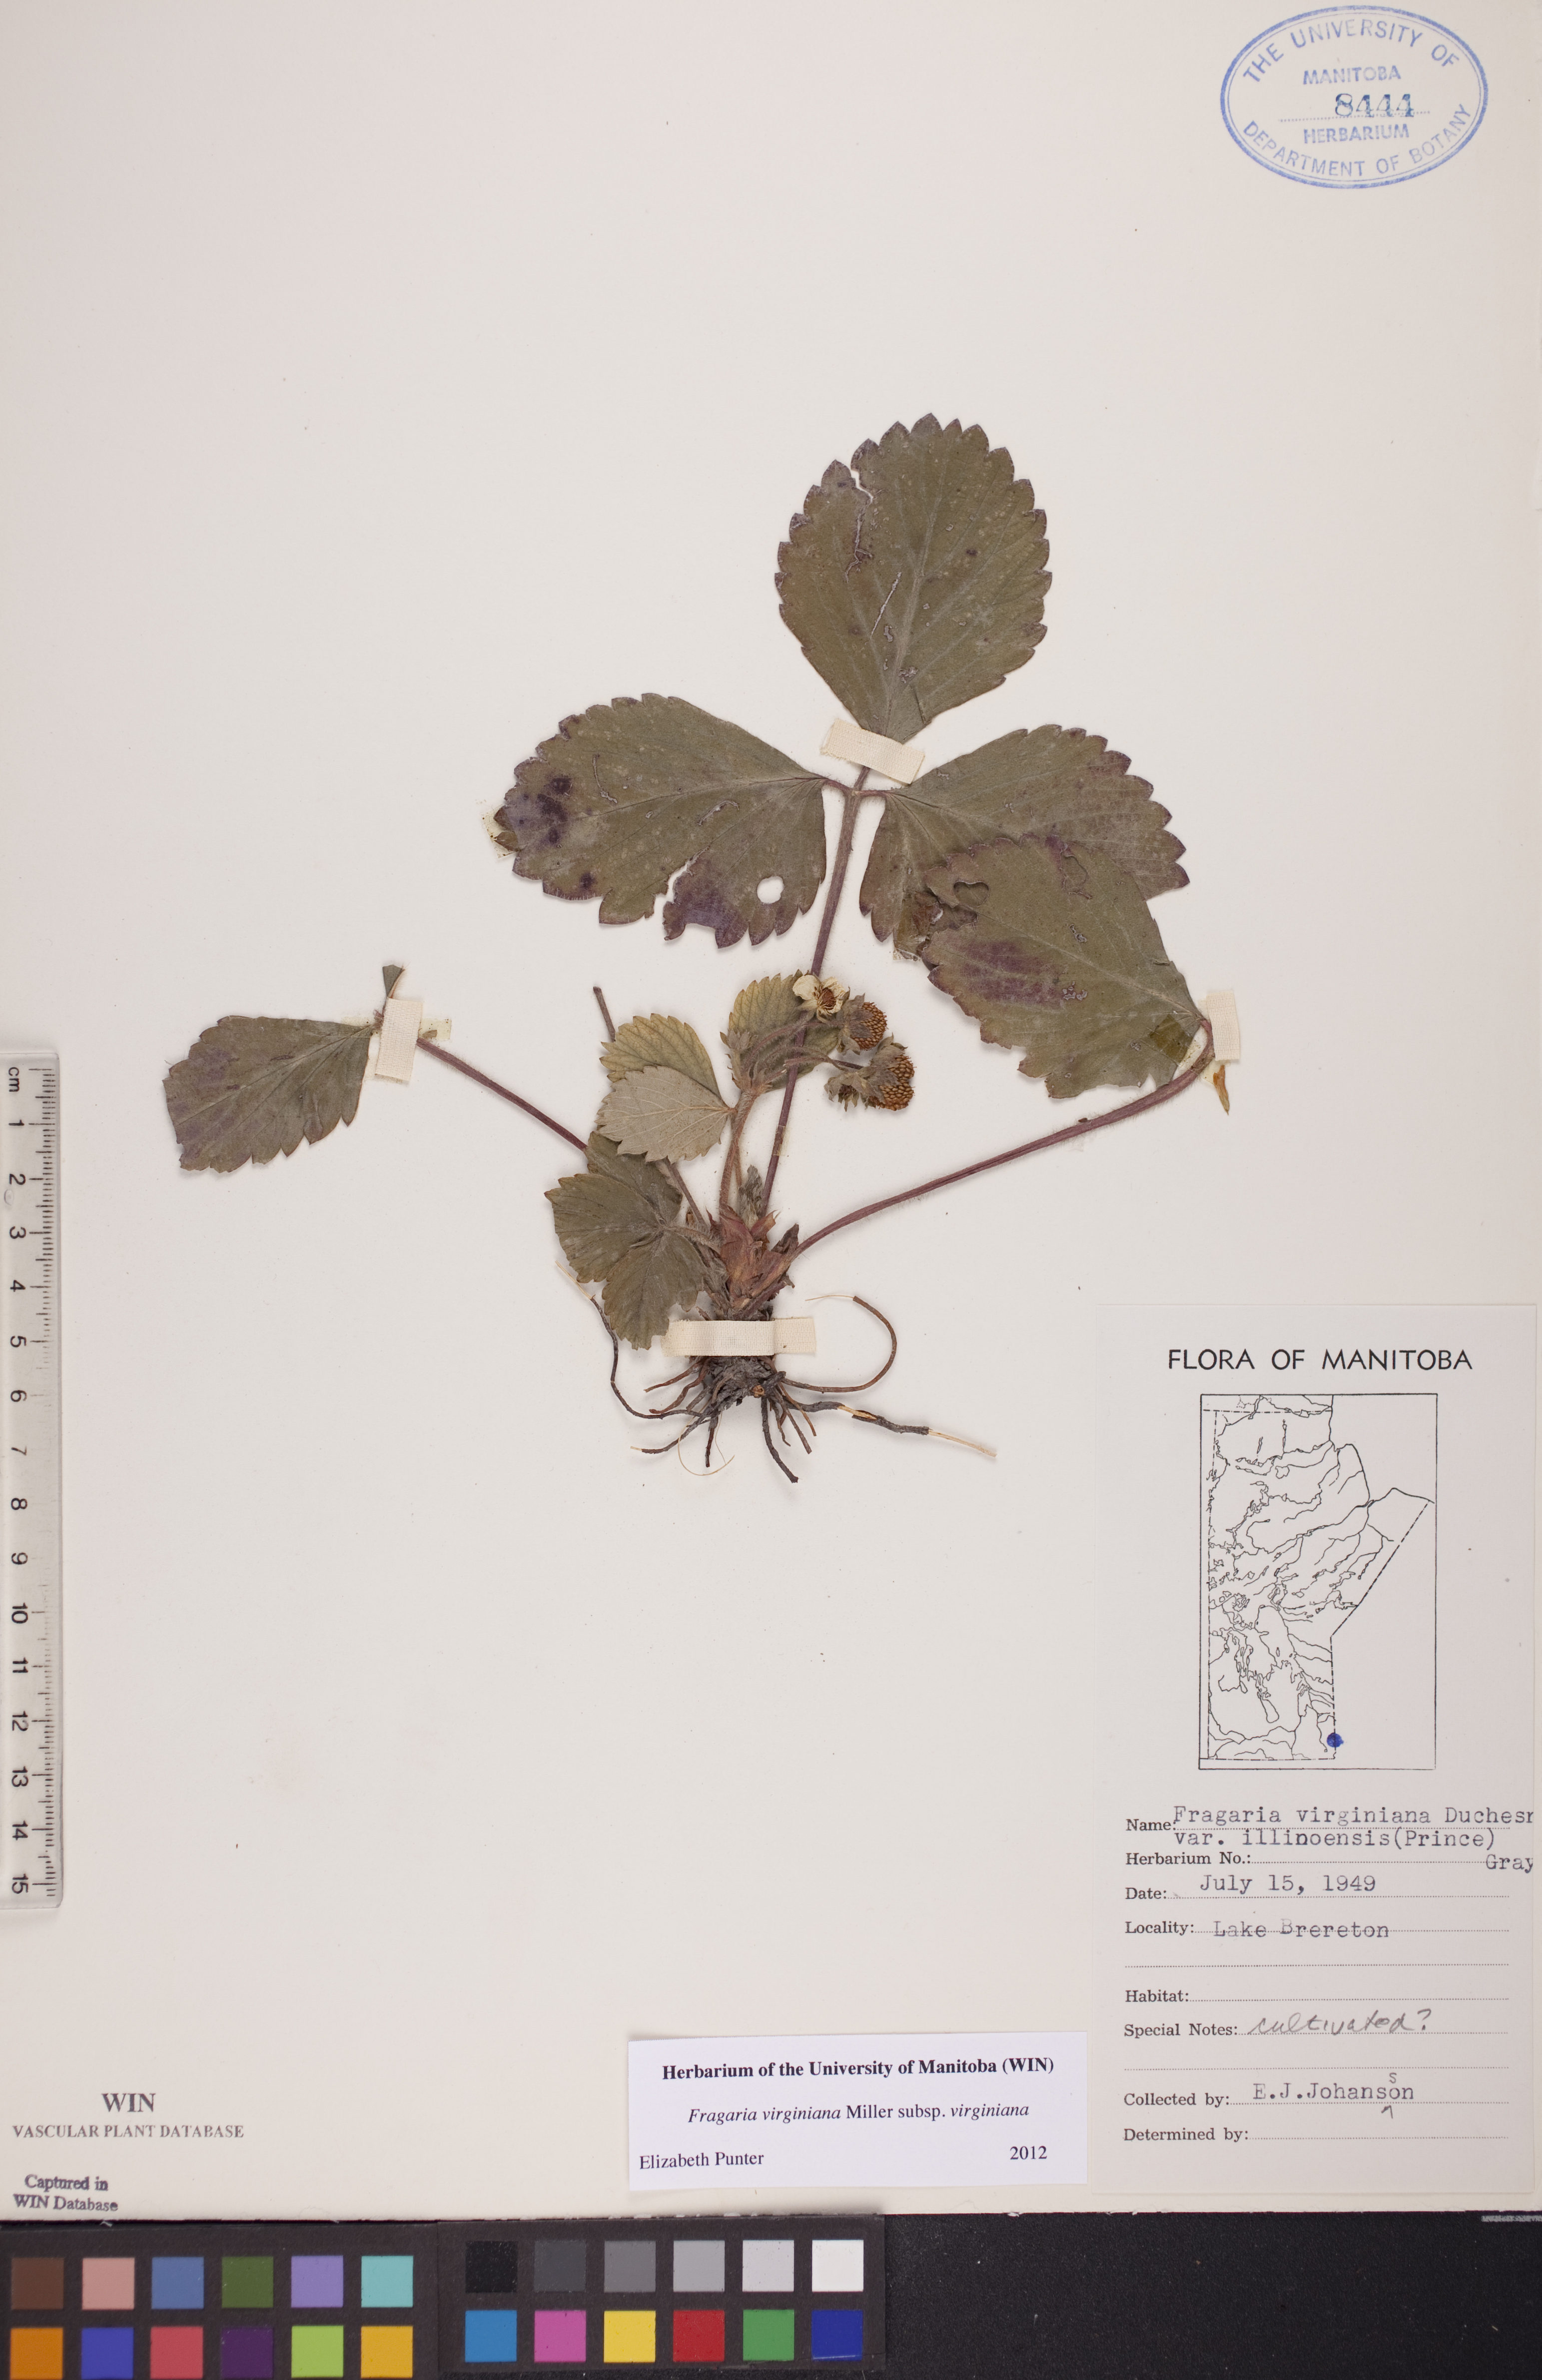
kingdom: Plantae
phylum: Tracheophyta
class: Magnoliopsida
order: Rosales
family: Rosaceae
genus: Fragaria
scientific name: Fragaria virginiana
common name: Thickleaved wild strawberry
